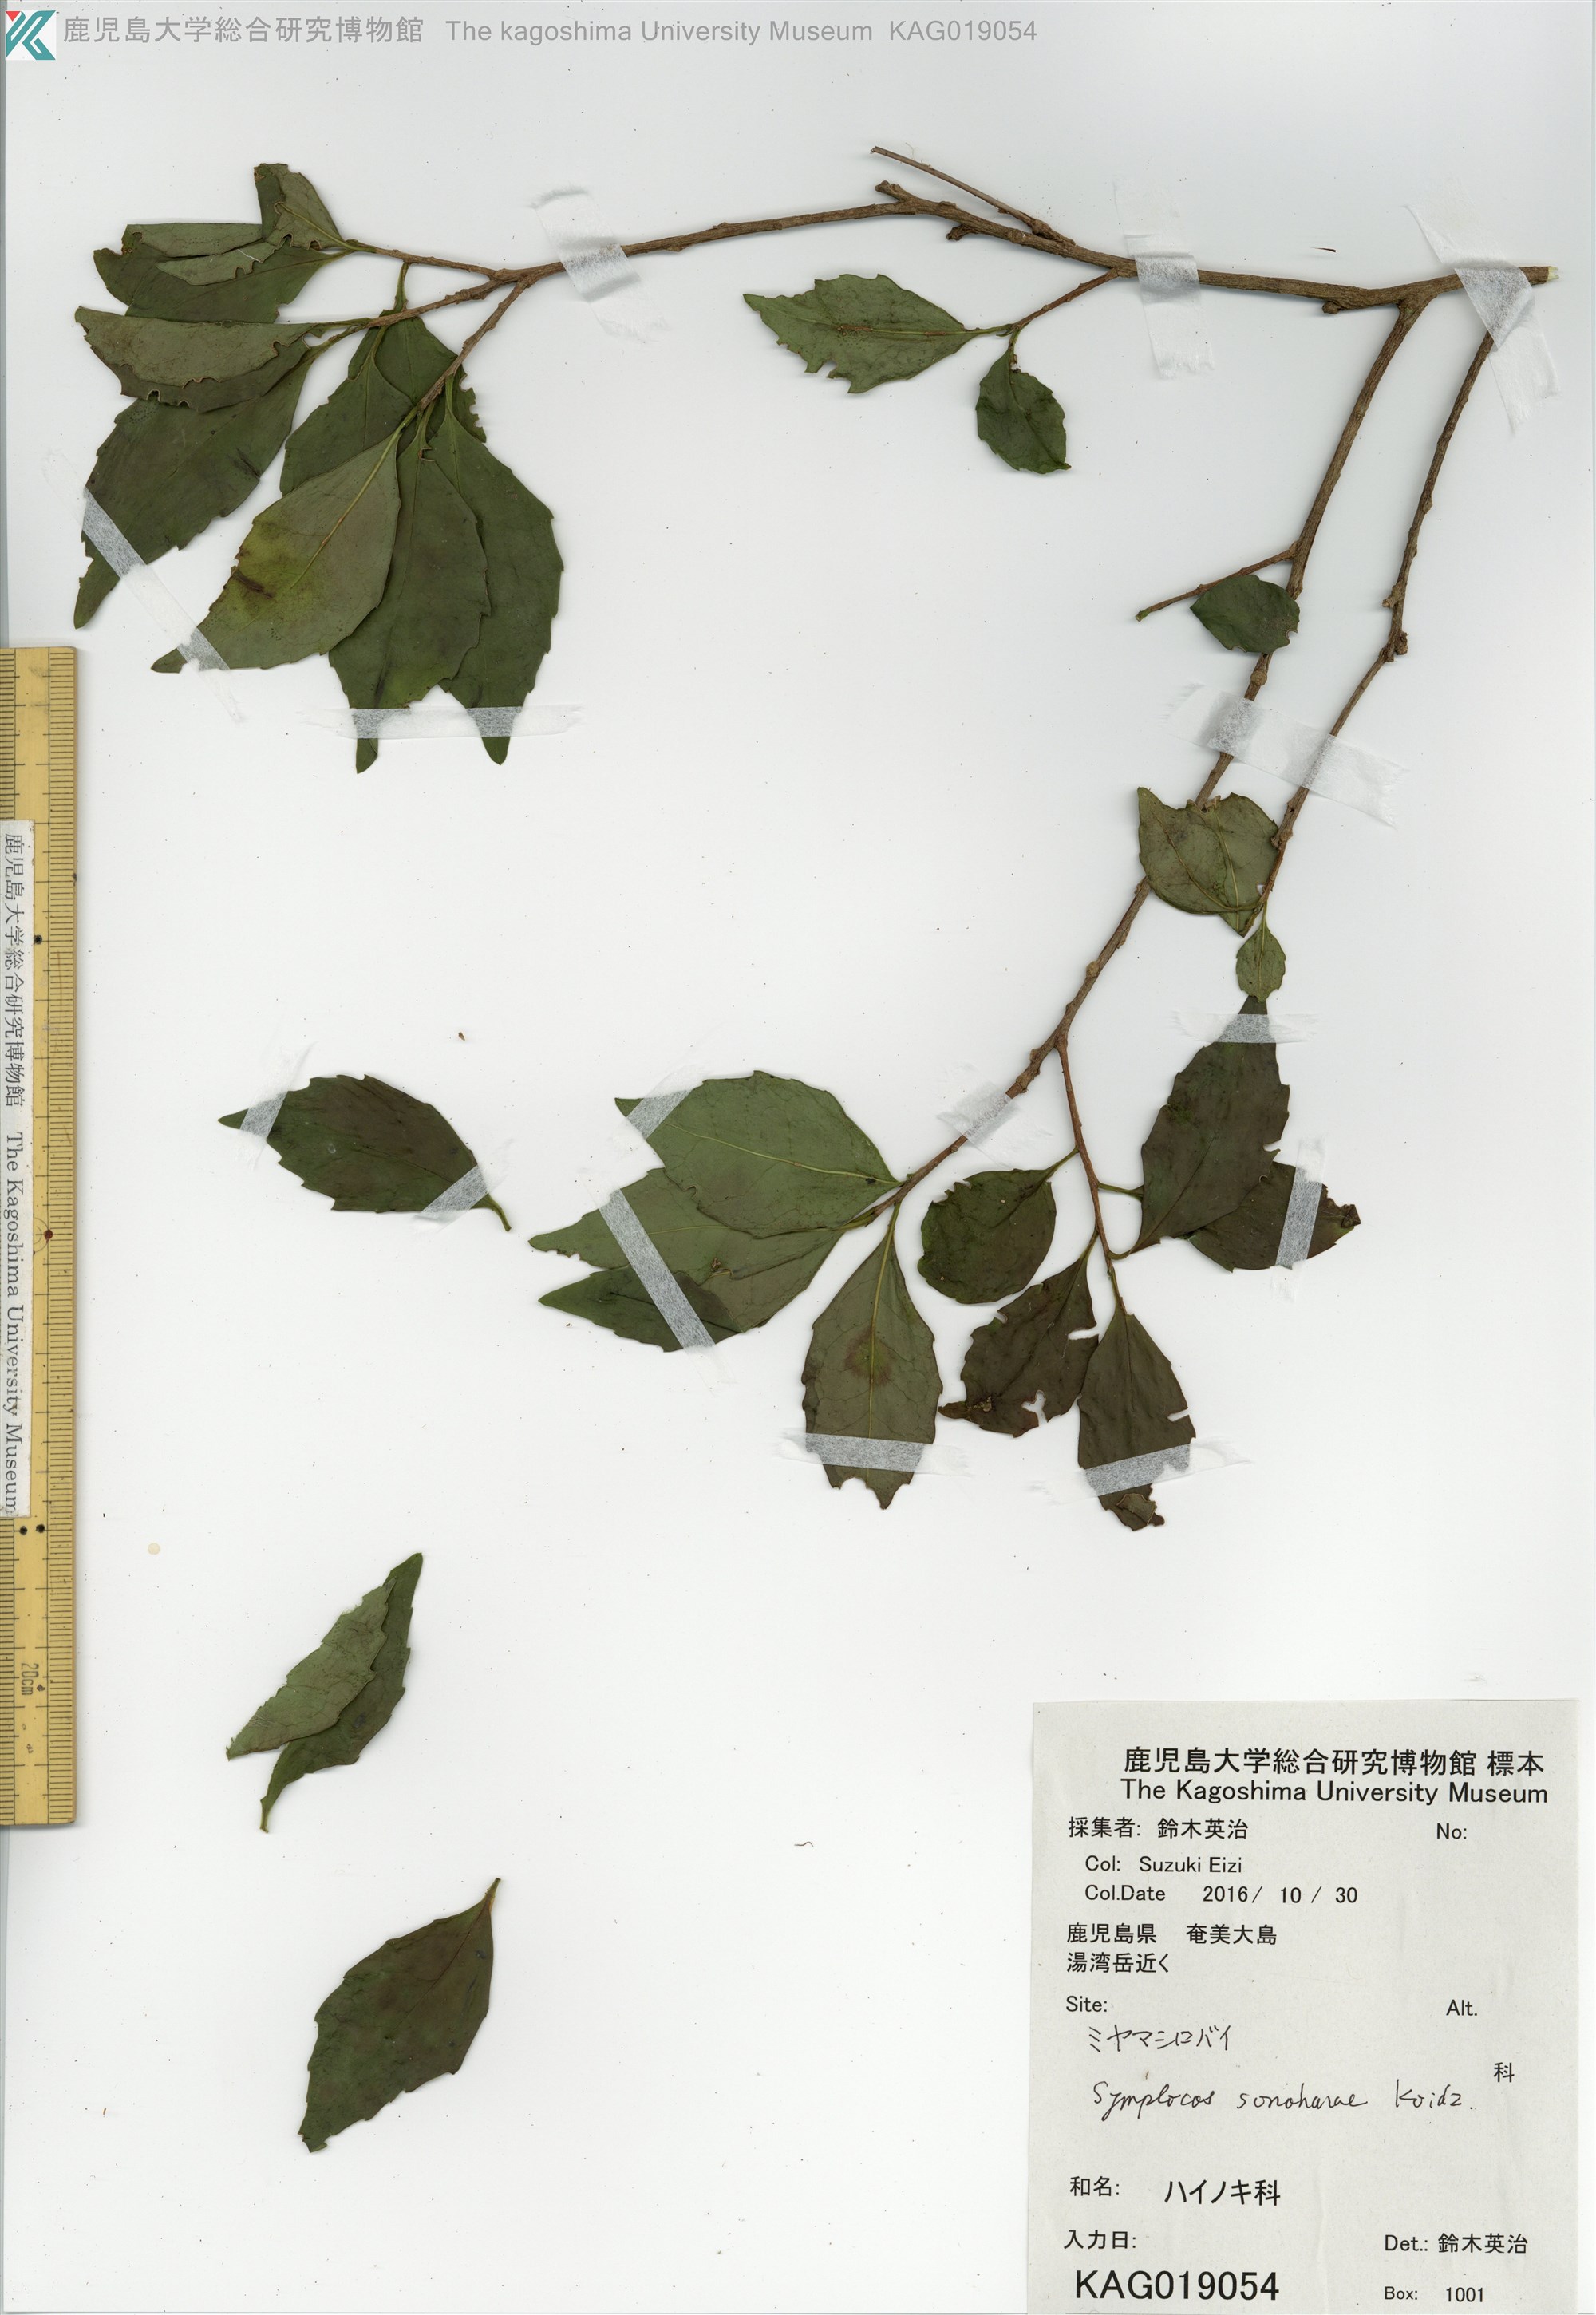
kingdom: Plantae
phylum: Tracheophyta
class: Magnoliopsida
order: Ericales
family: Symplocaceae
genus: Symplocos
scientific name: Symplocos sonoharae
